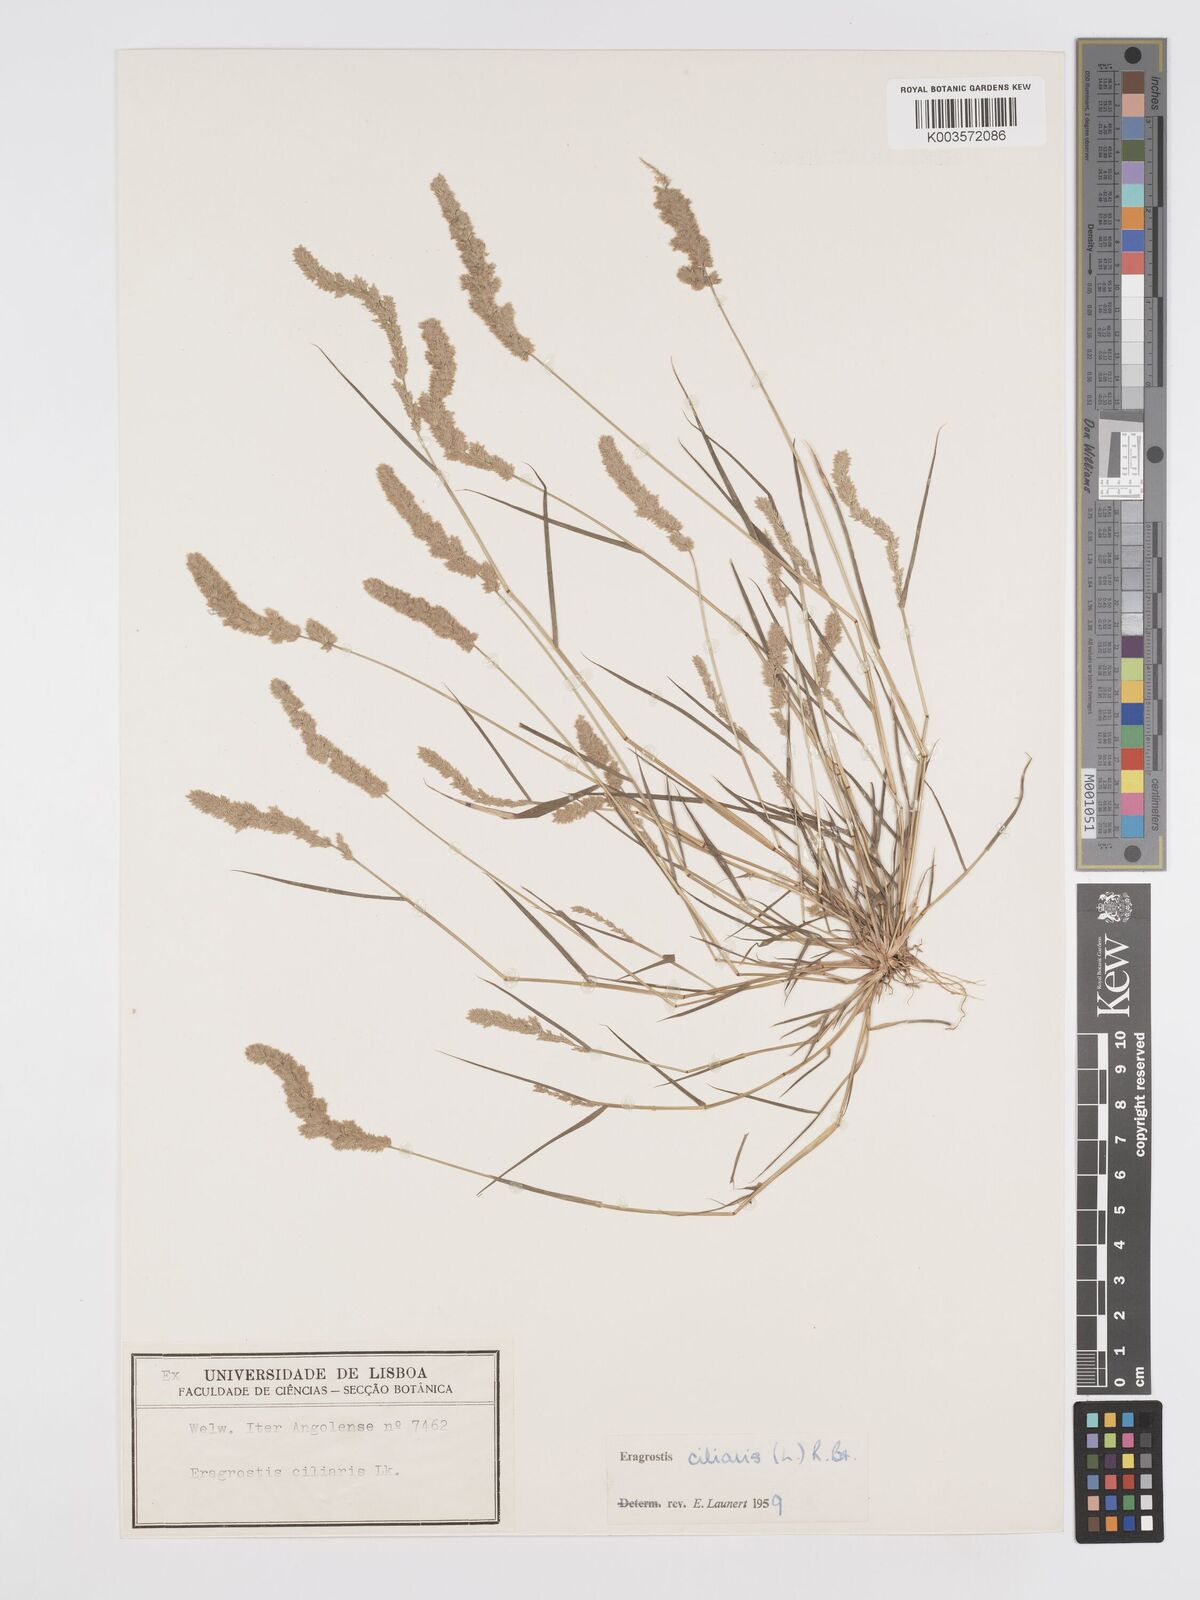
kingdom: Plantae
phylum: Tracheophyta
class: Liliopsida
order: Poales
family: Poaceae
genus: Eragrostis
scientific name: Eragrostis ciliaris
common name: Gophertail lovegrass
